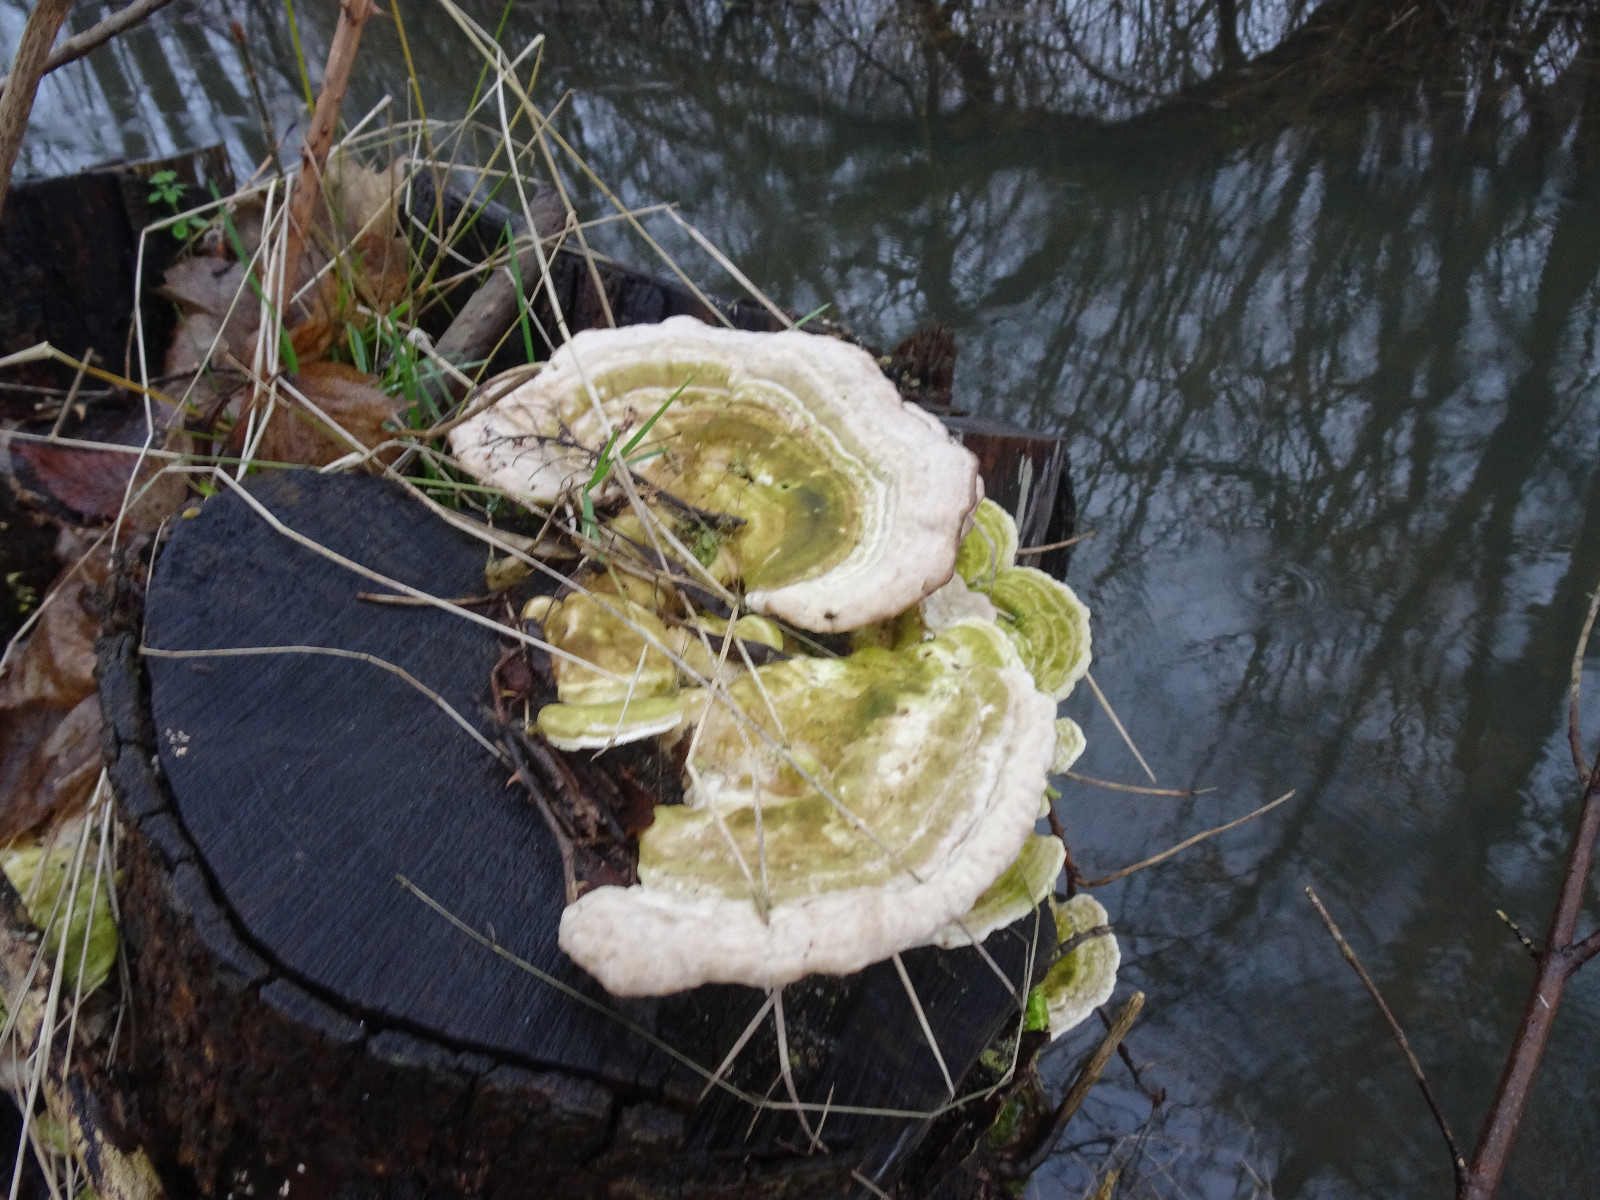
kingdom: Fungi
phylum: Basidiomycota
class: Agaricomycetes
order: Polyporales
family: Polyporaceae
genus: Trametes
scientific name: Trametes gibbosa
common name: puklet læderporesvamp
